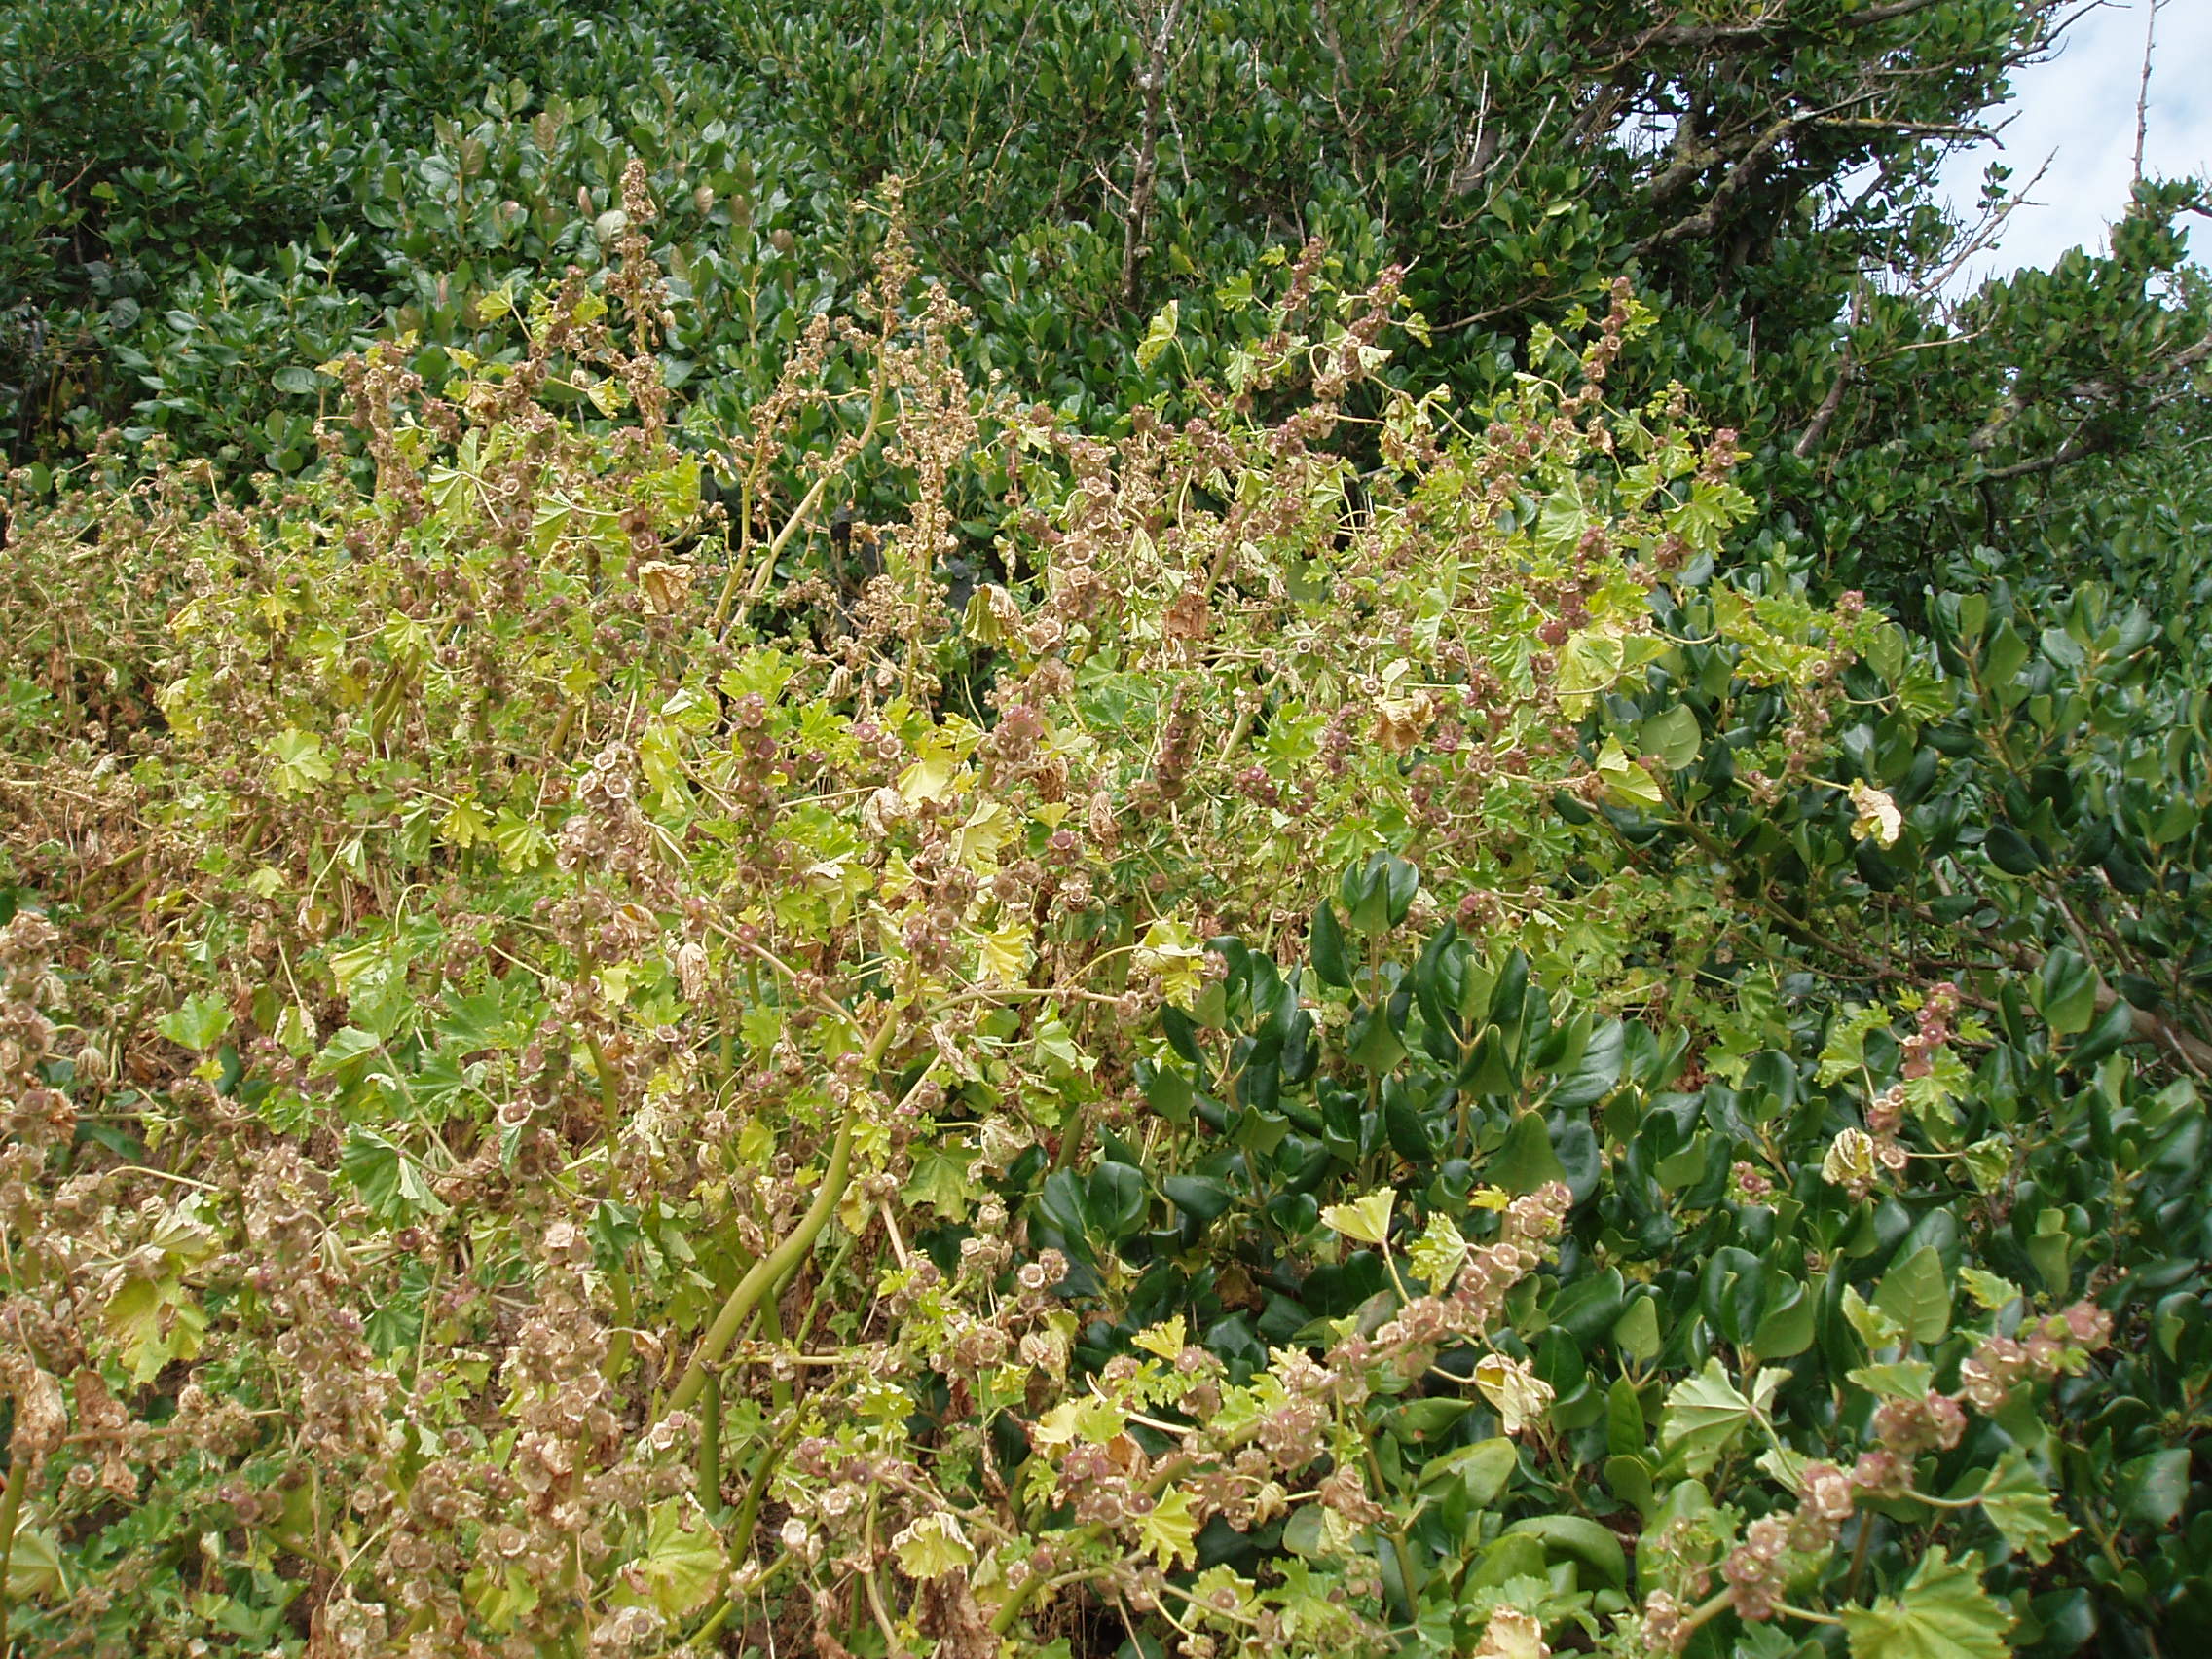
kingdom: Plantae
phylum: Tracheophyta
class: Magnoliopsida
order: Malvales
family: Malvaceae
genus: Malva
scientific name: Malva parviflora
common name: Least mallow
